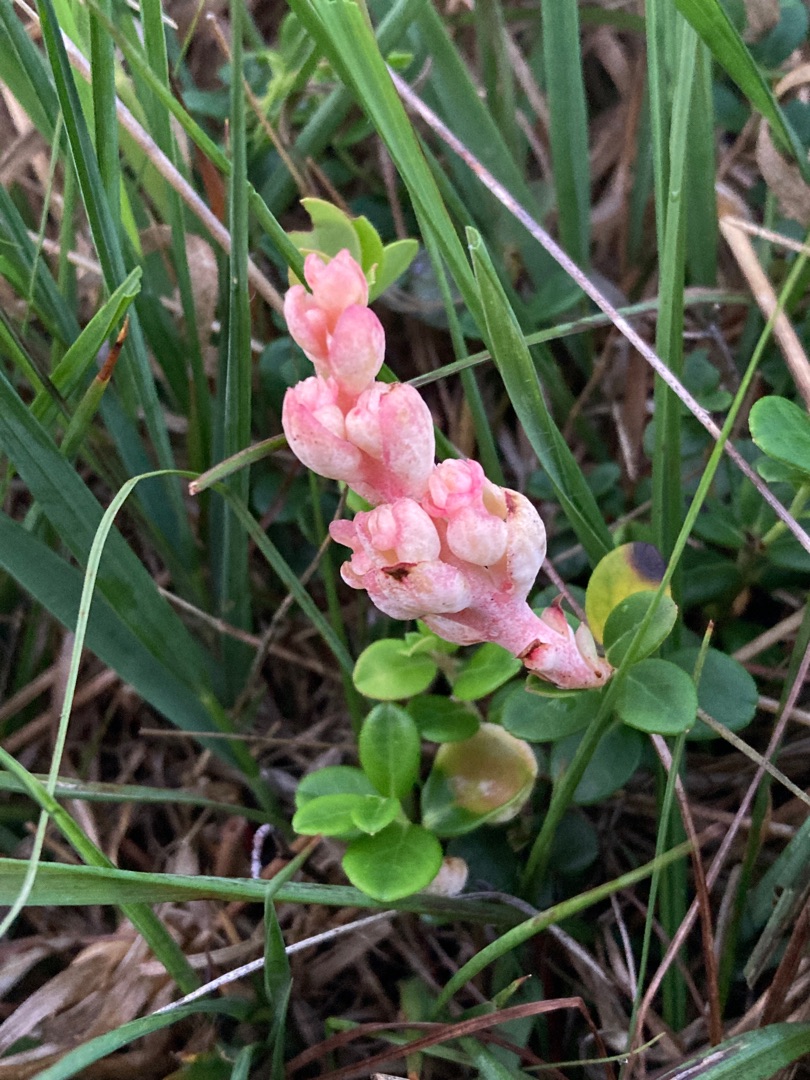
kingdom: Fungi
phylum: Basidiomycota
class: Exobasidiomycetes
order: Exobasidiales
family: Exobasidiaceae
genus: Exobasidium
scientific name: Exobasidium vaccinii
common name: Tyttebærblad-bøllesvamp
